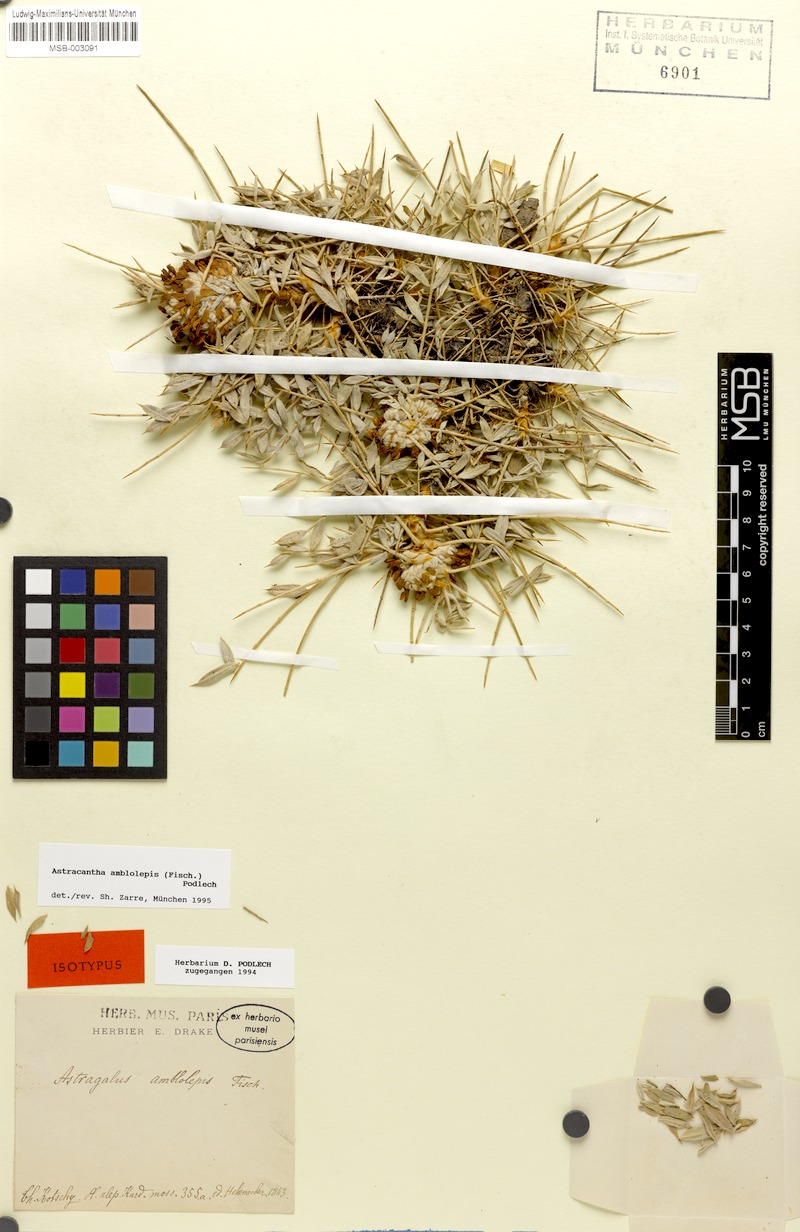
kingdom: Plantae
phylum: Tracheophyta
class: Magnoliopsida
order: Fabales
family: Fabaceae
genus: Astragalus
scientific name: Astragalus amblolepis
